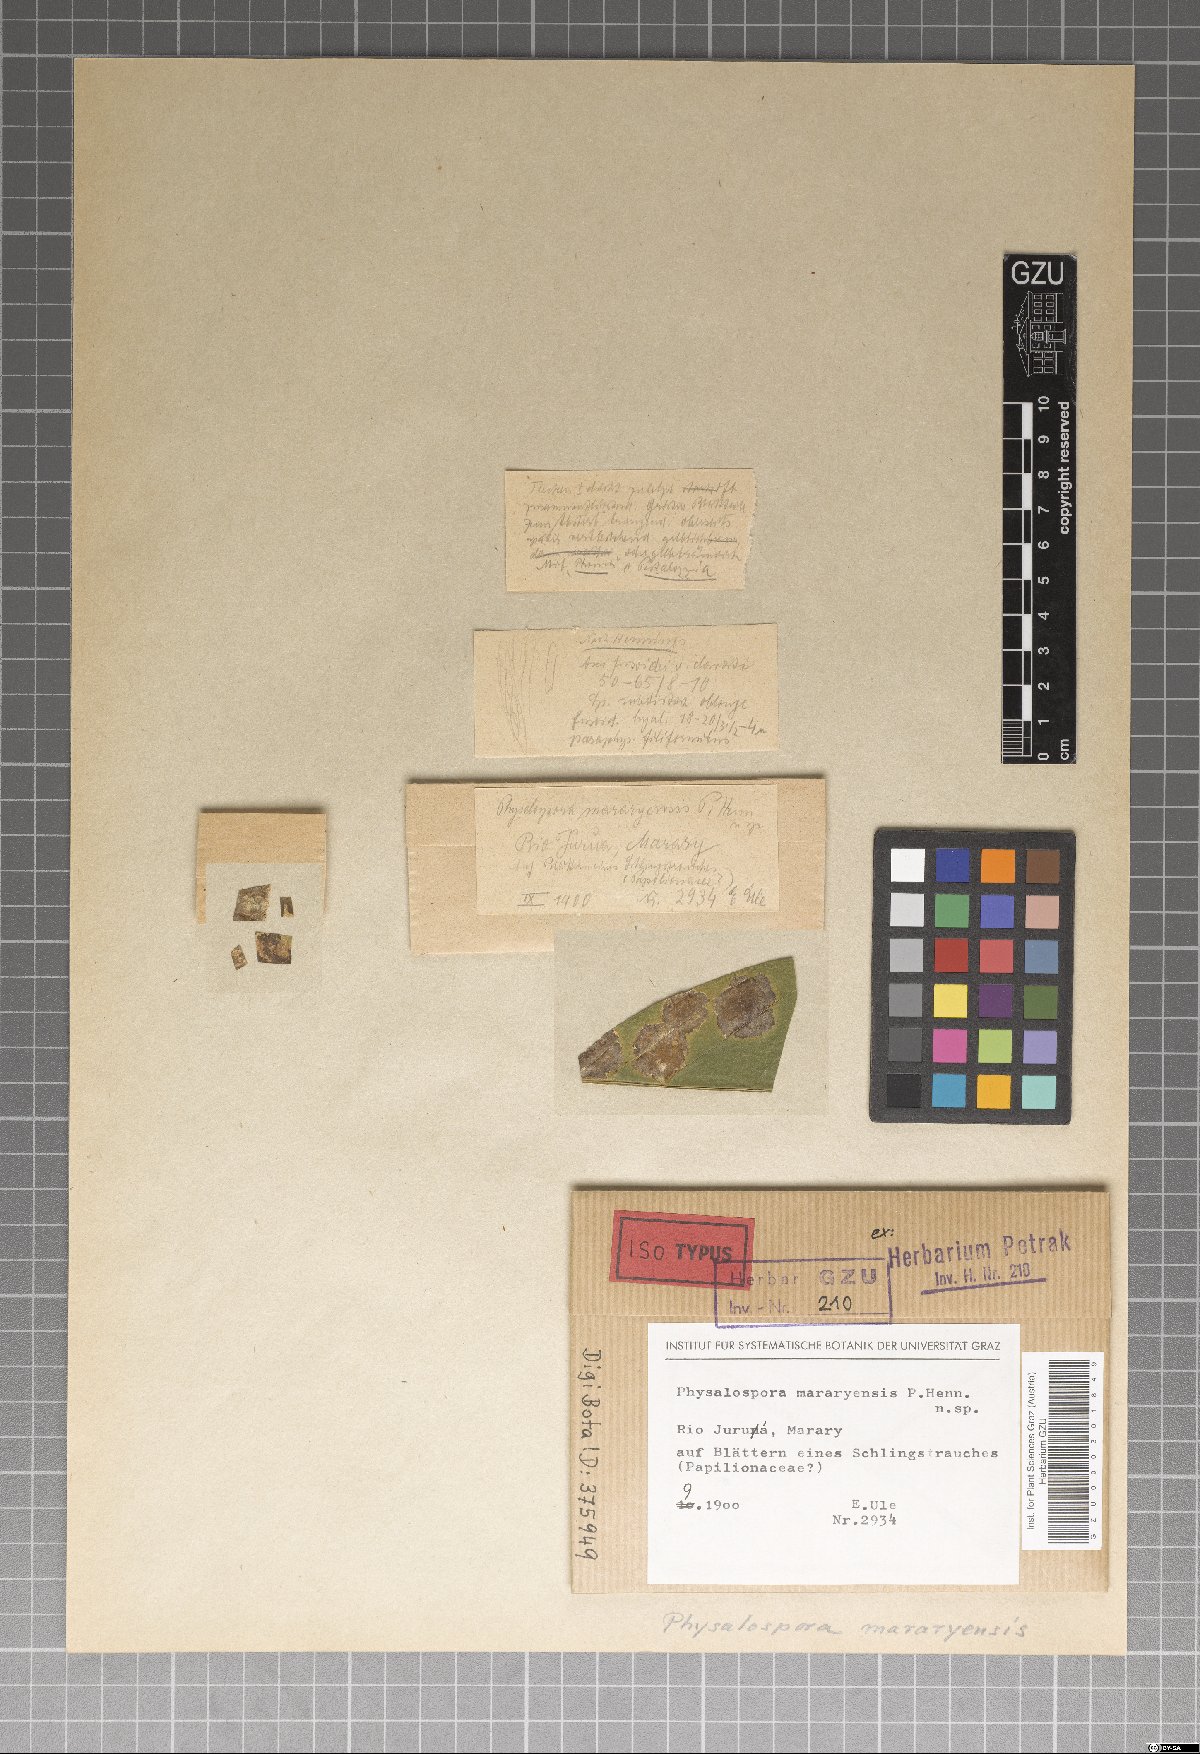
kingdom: Fungi
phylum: Ascomycota
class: Sordariomycetes
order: Diaporthales
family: Gnomoniaceae
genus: Diplacella
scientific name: Diplacella mararyensis
